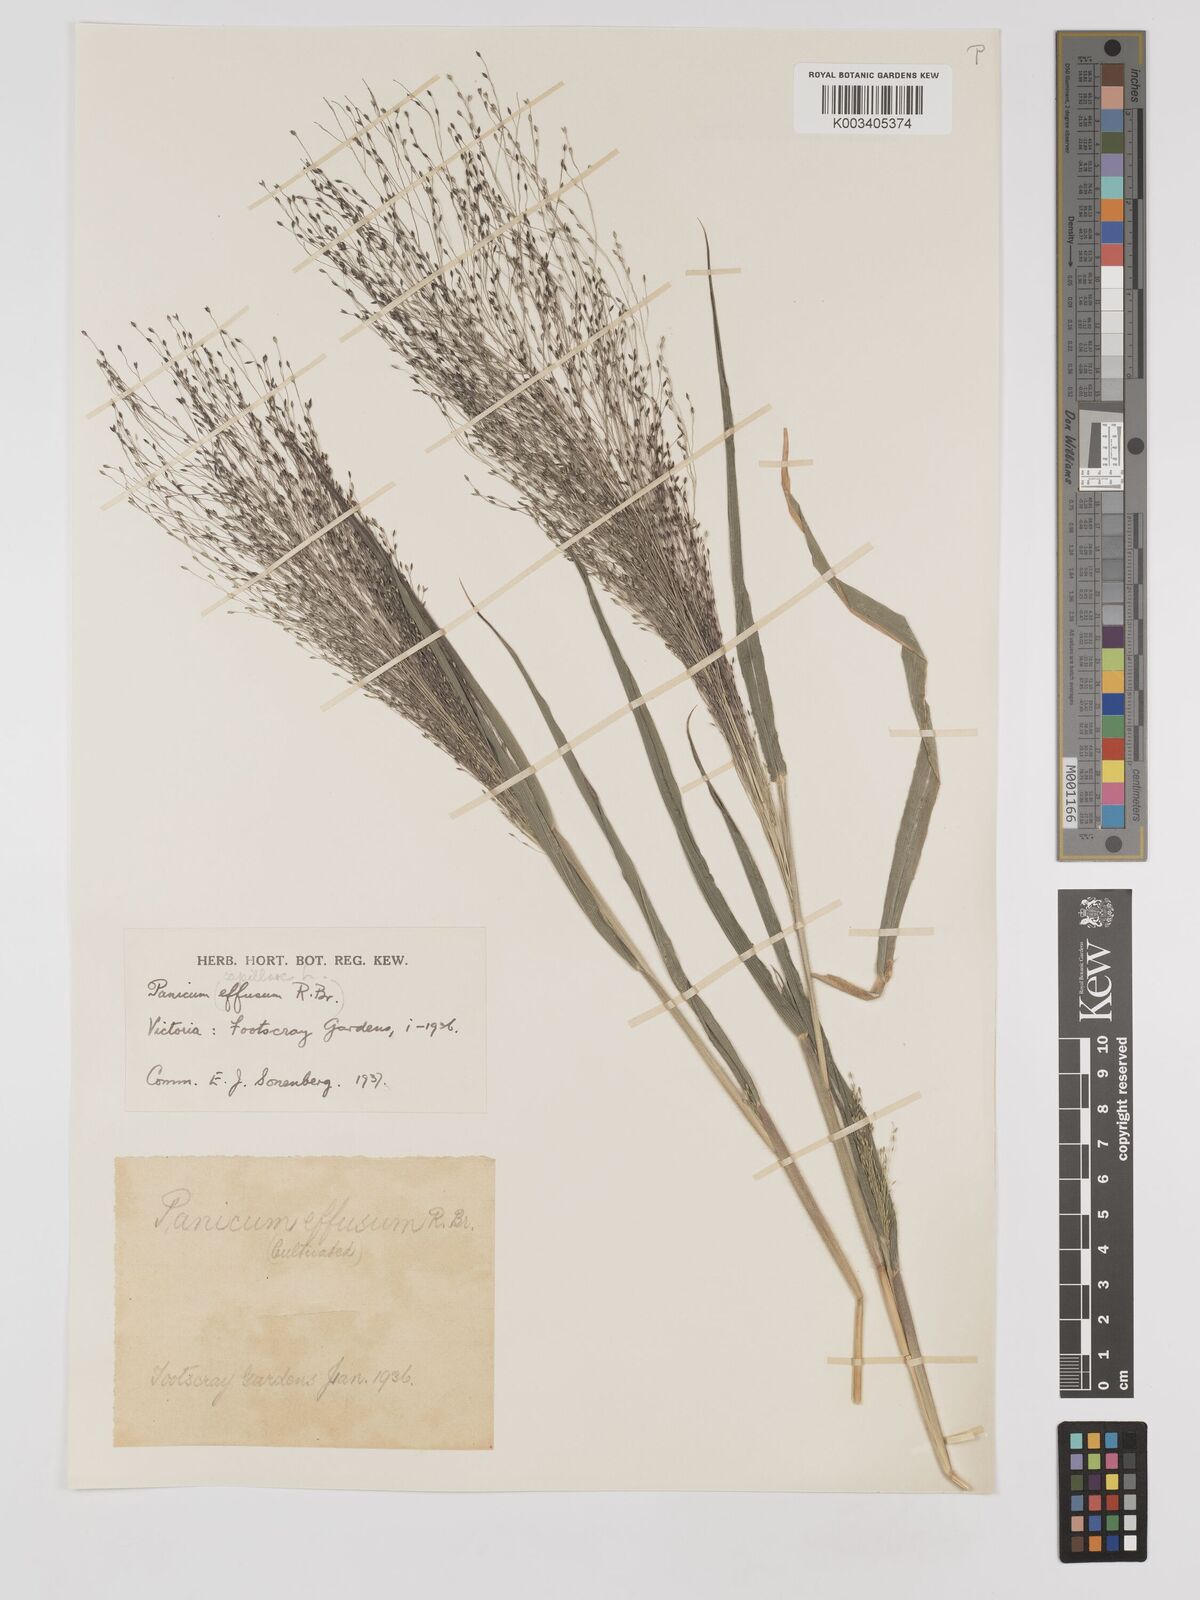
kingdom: Plantae
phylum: Tracheophyta
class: Liliopsida
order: Poales
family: Poaceae
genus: Panicum
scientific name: Panicum capillare
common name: Witch-grass
